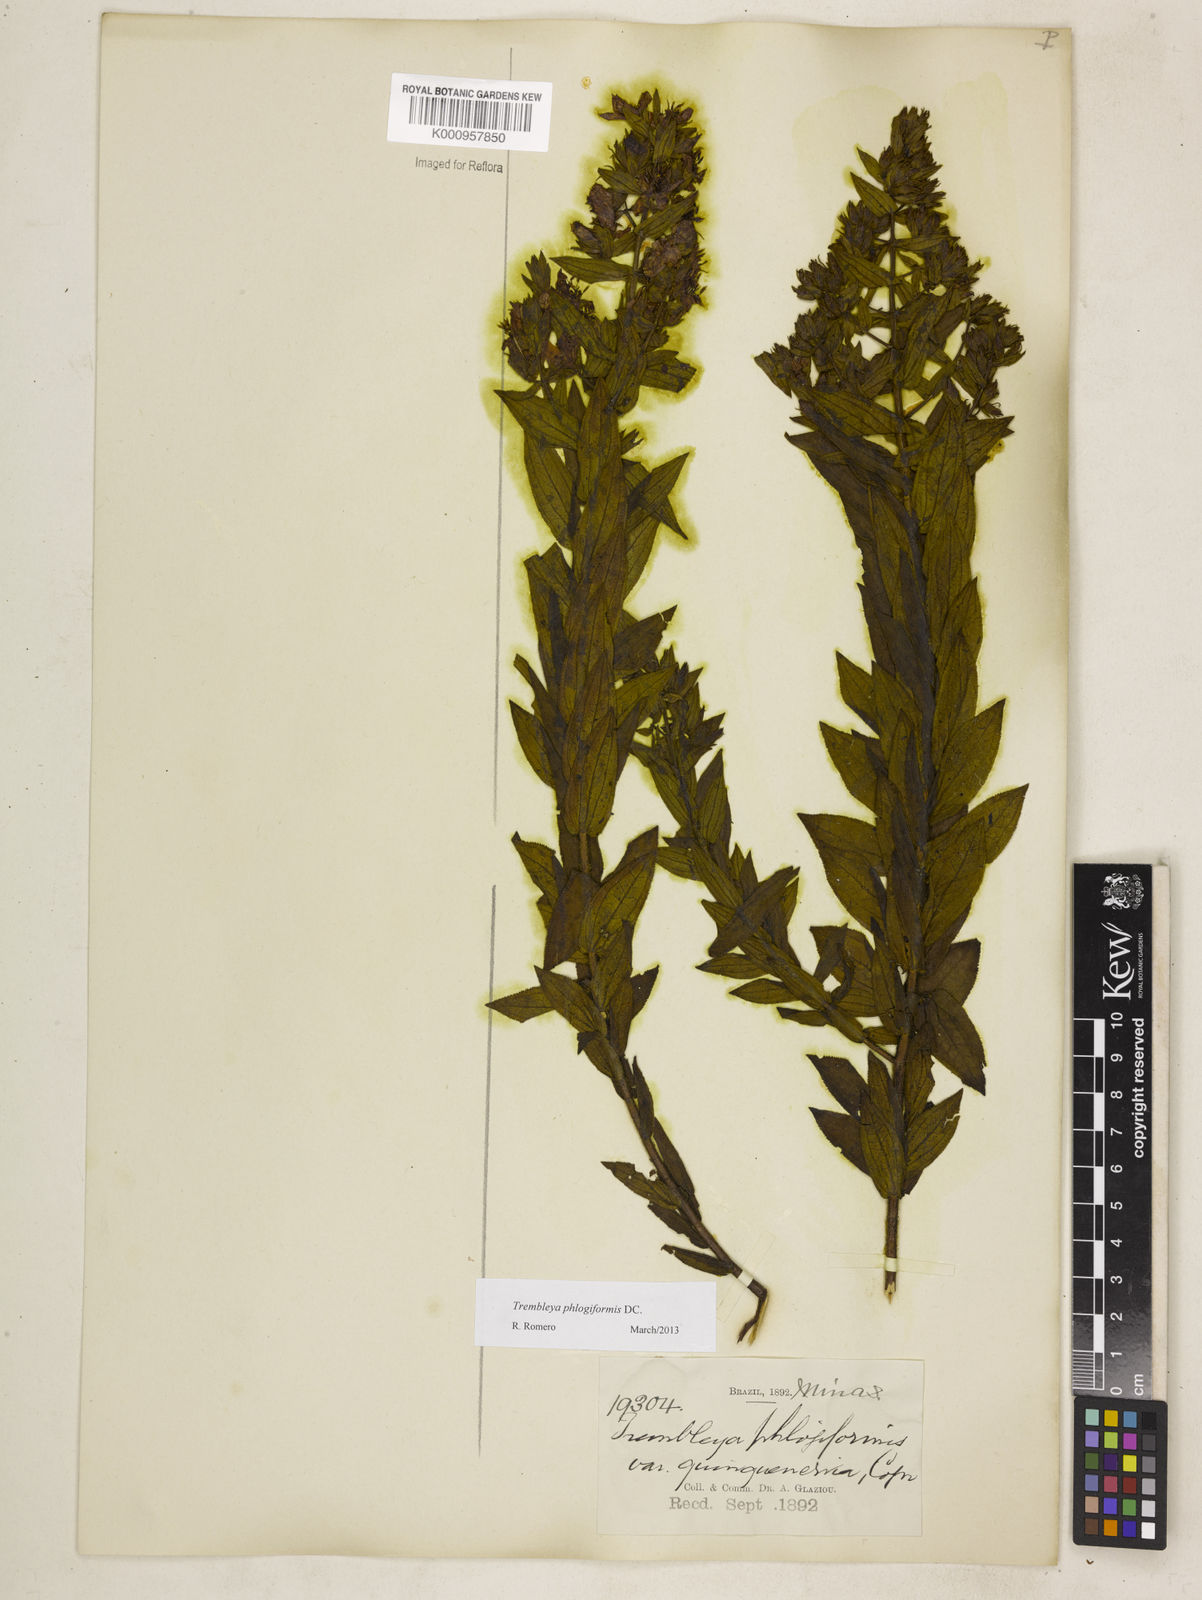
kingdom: Plantae
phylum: Tracheophyta
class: Magnoliopsida
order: Myrtales
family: Melastomataceae
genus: Microlicia
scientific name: Microlicia phlogiformis
